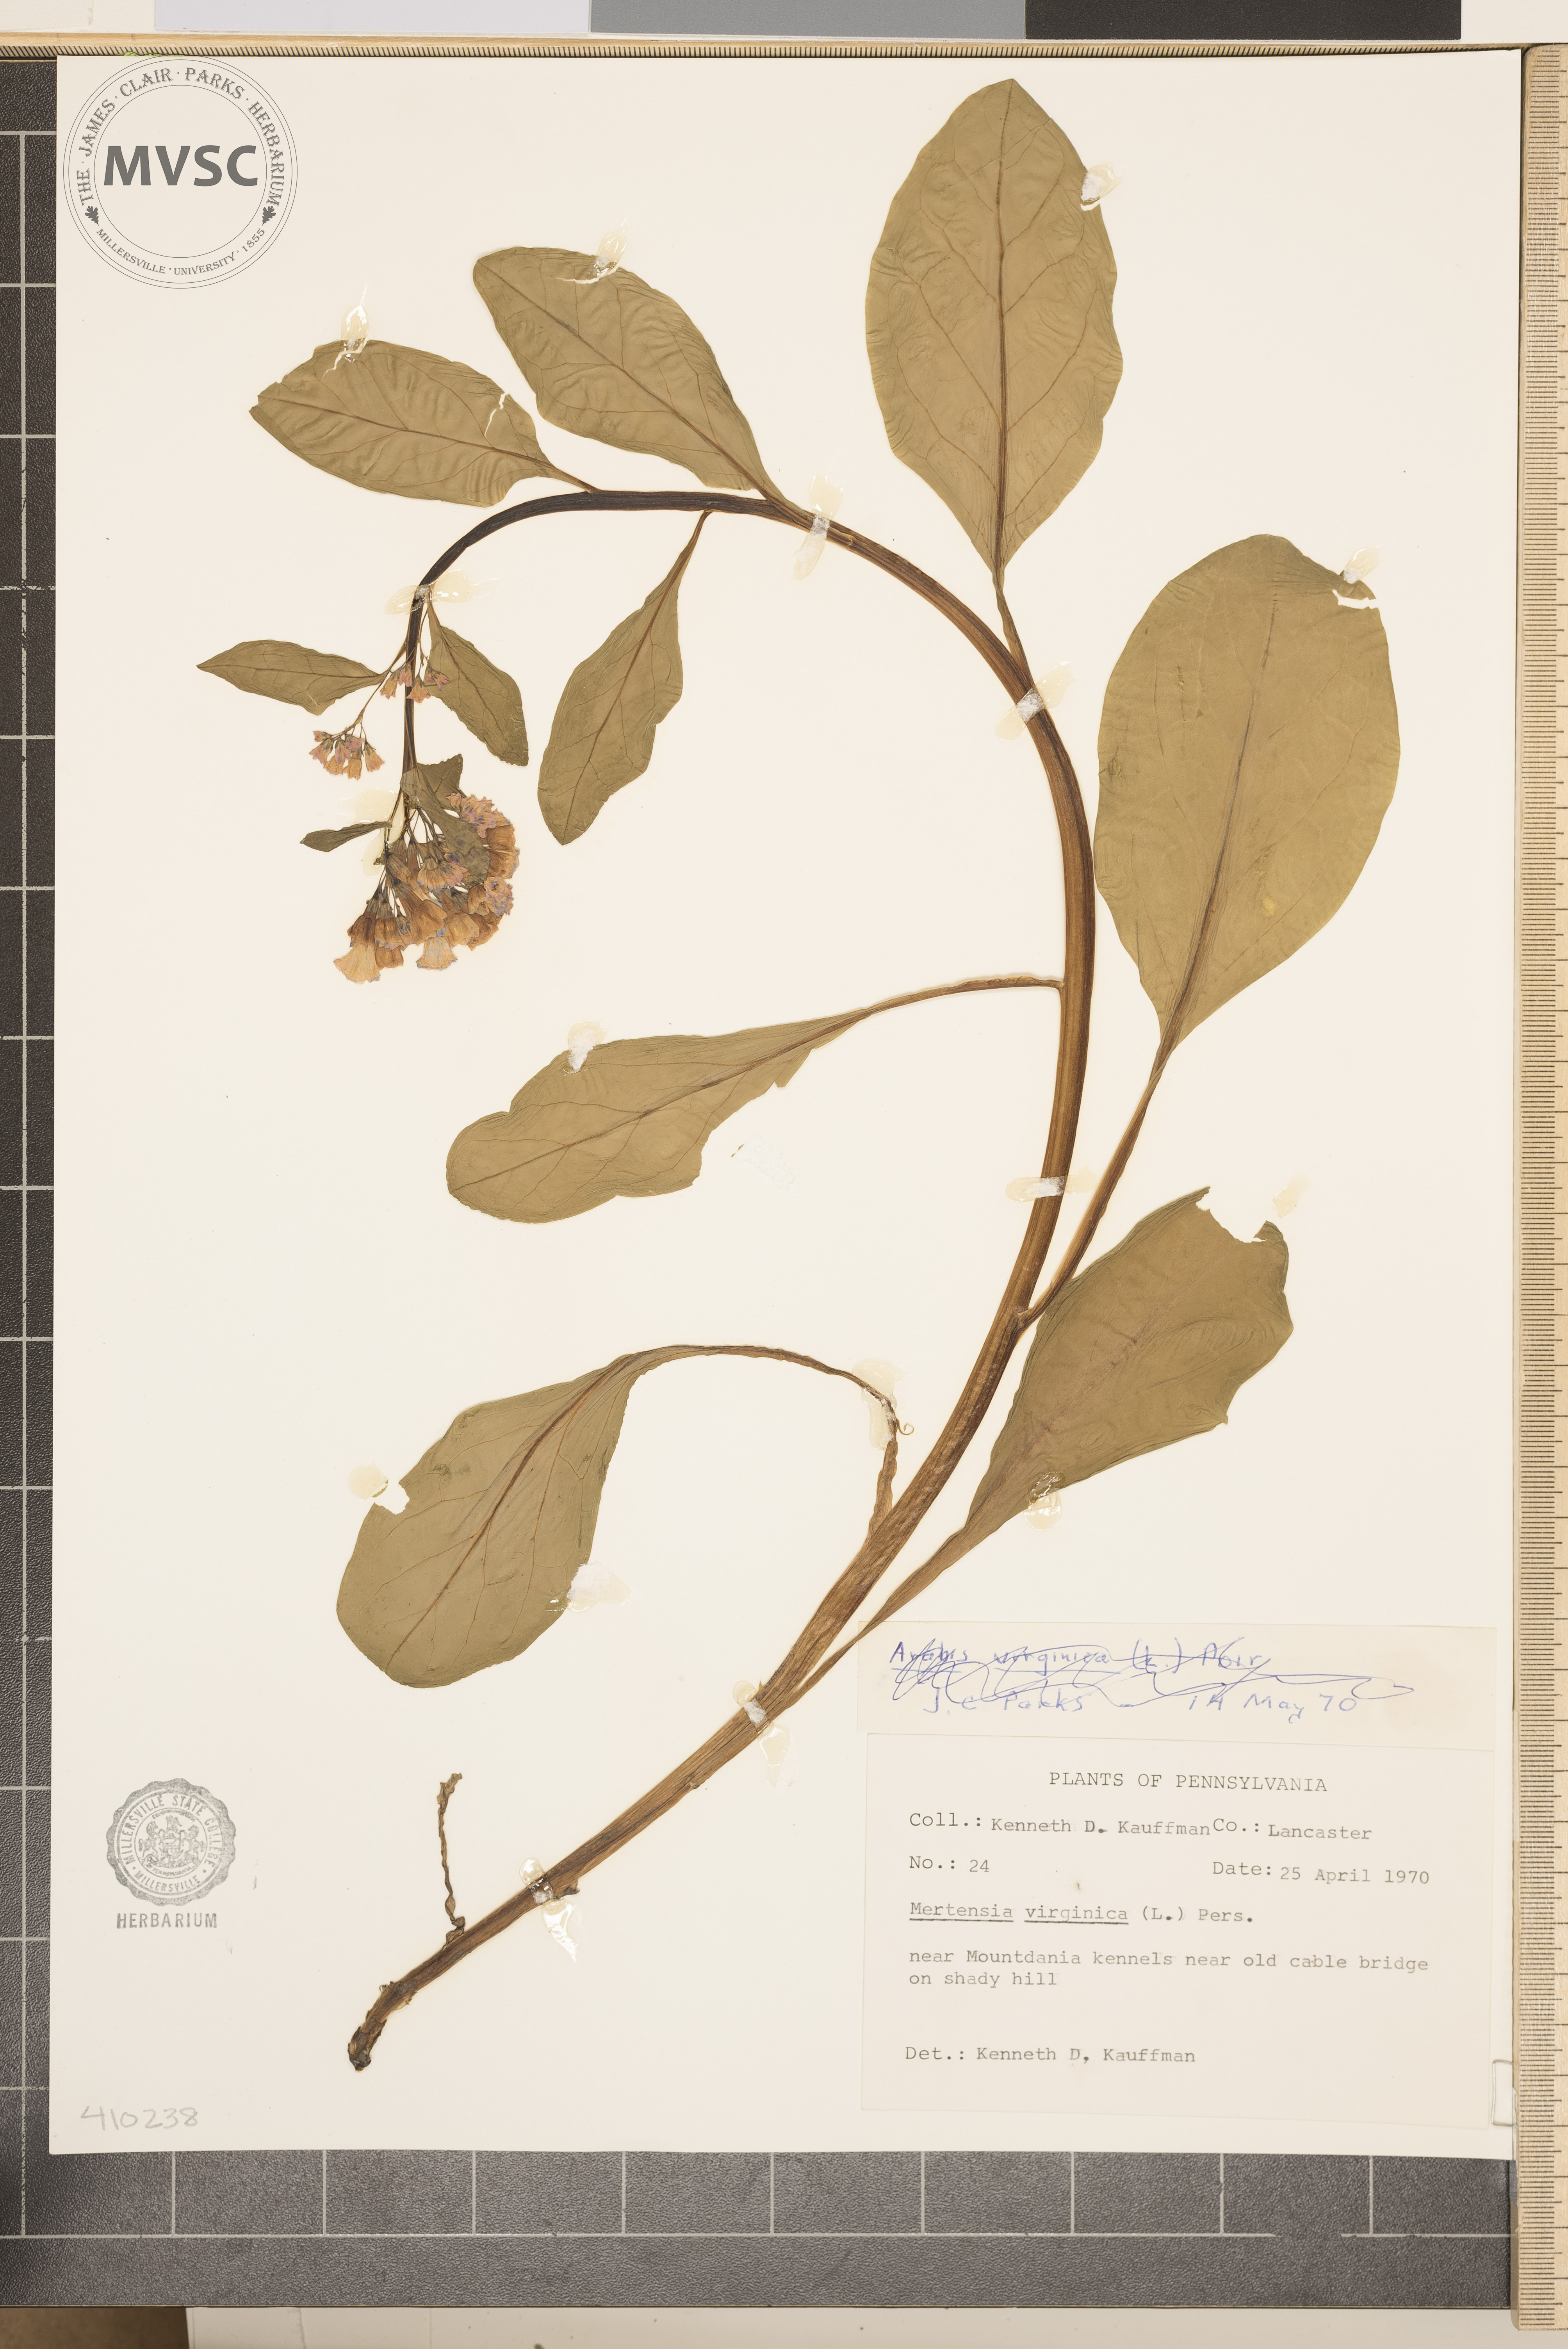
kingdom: Plantae
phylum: Tracheophyta
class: Magnoliopsida
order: Boraginales
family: Boraginaceae
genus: Mertensia
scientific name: Mertensia virginica
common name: Virginia bluebells
